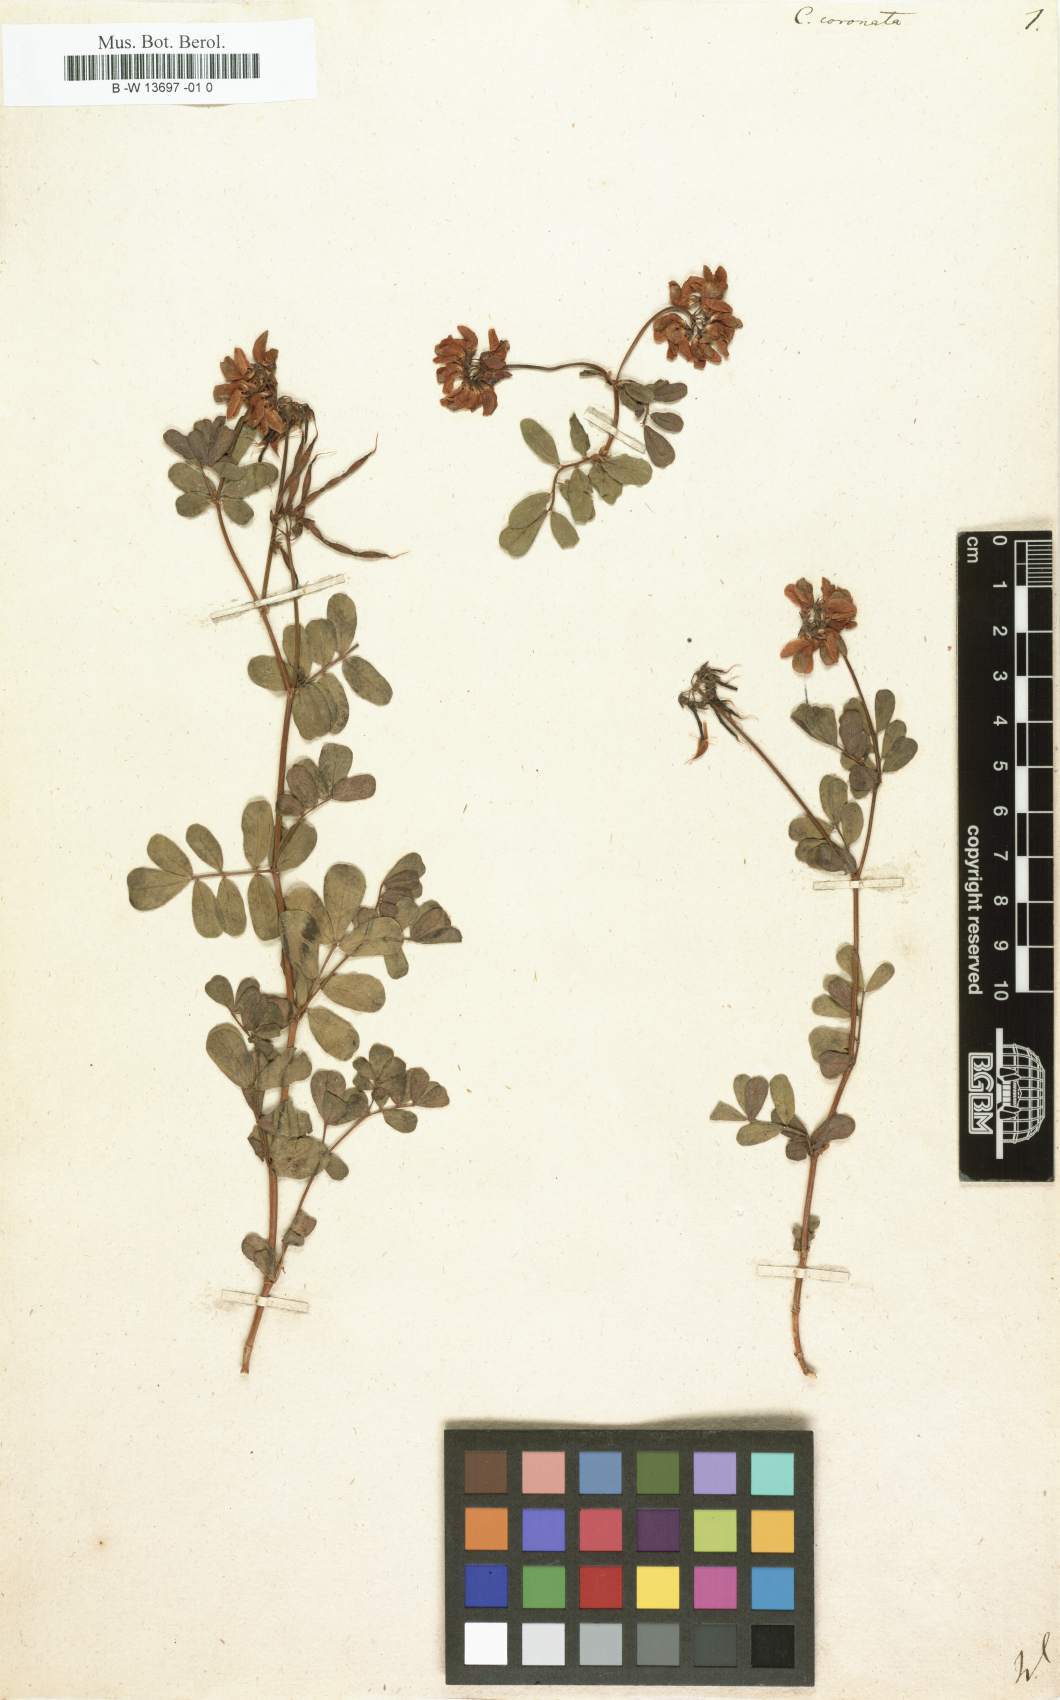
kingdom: Plantae
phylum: Tracheophyta
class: Magnoliopsida
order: Fabales
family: Fabaceae
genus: Coronilla
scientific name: Coronilla coronata
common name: Scorpion-vetch
